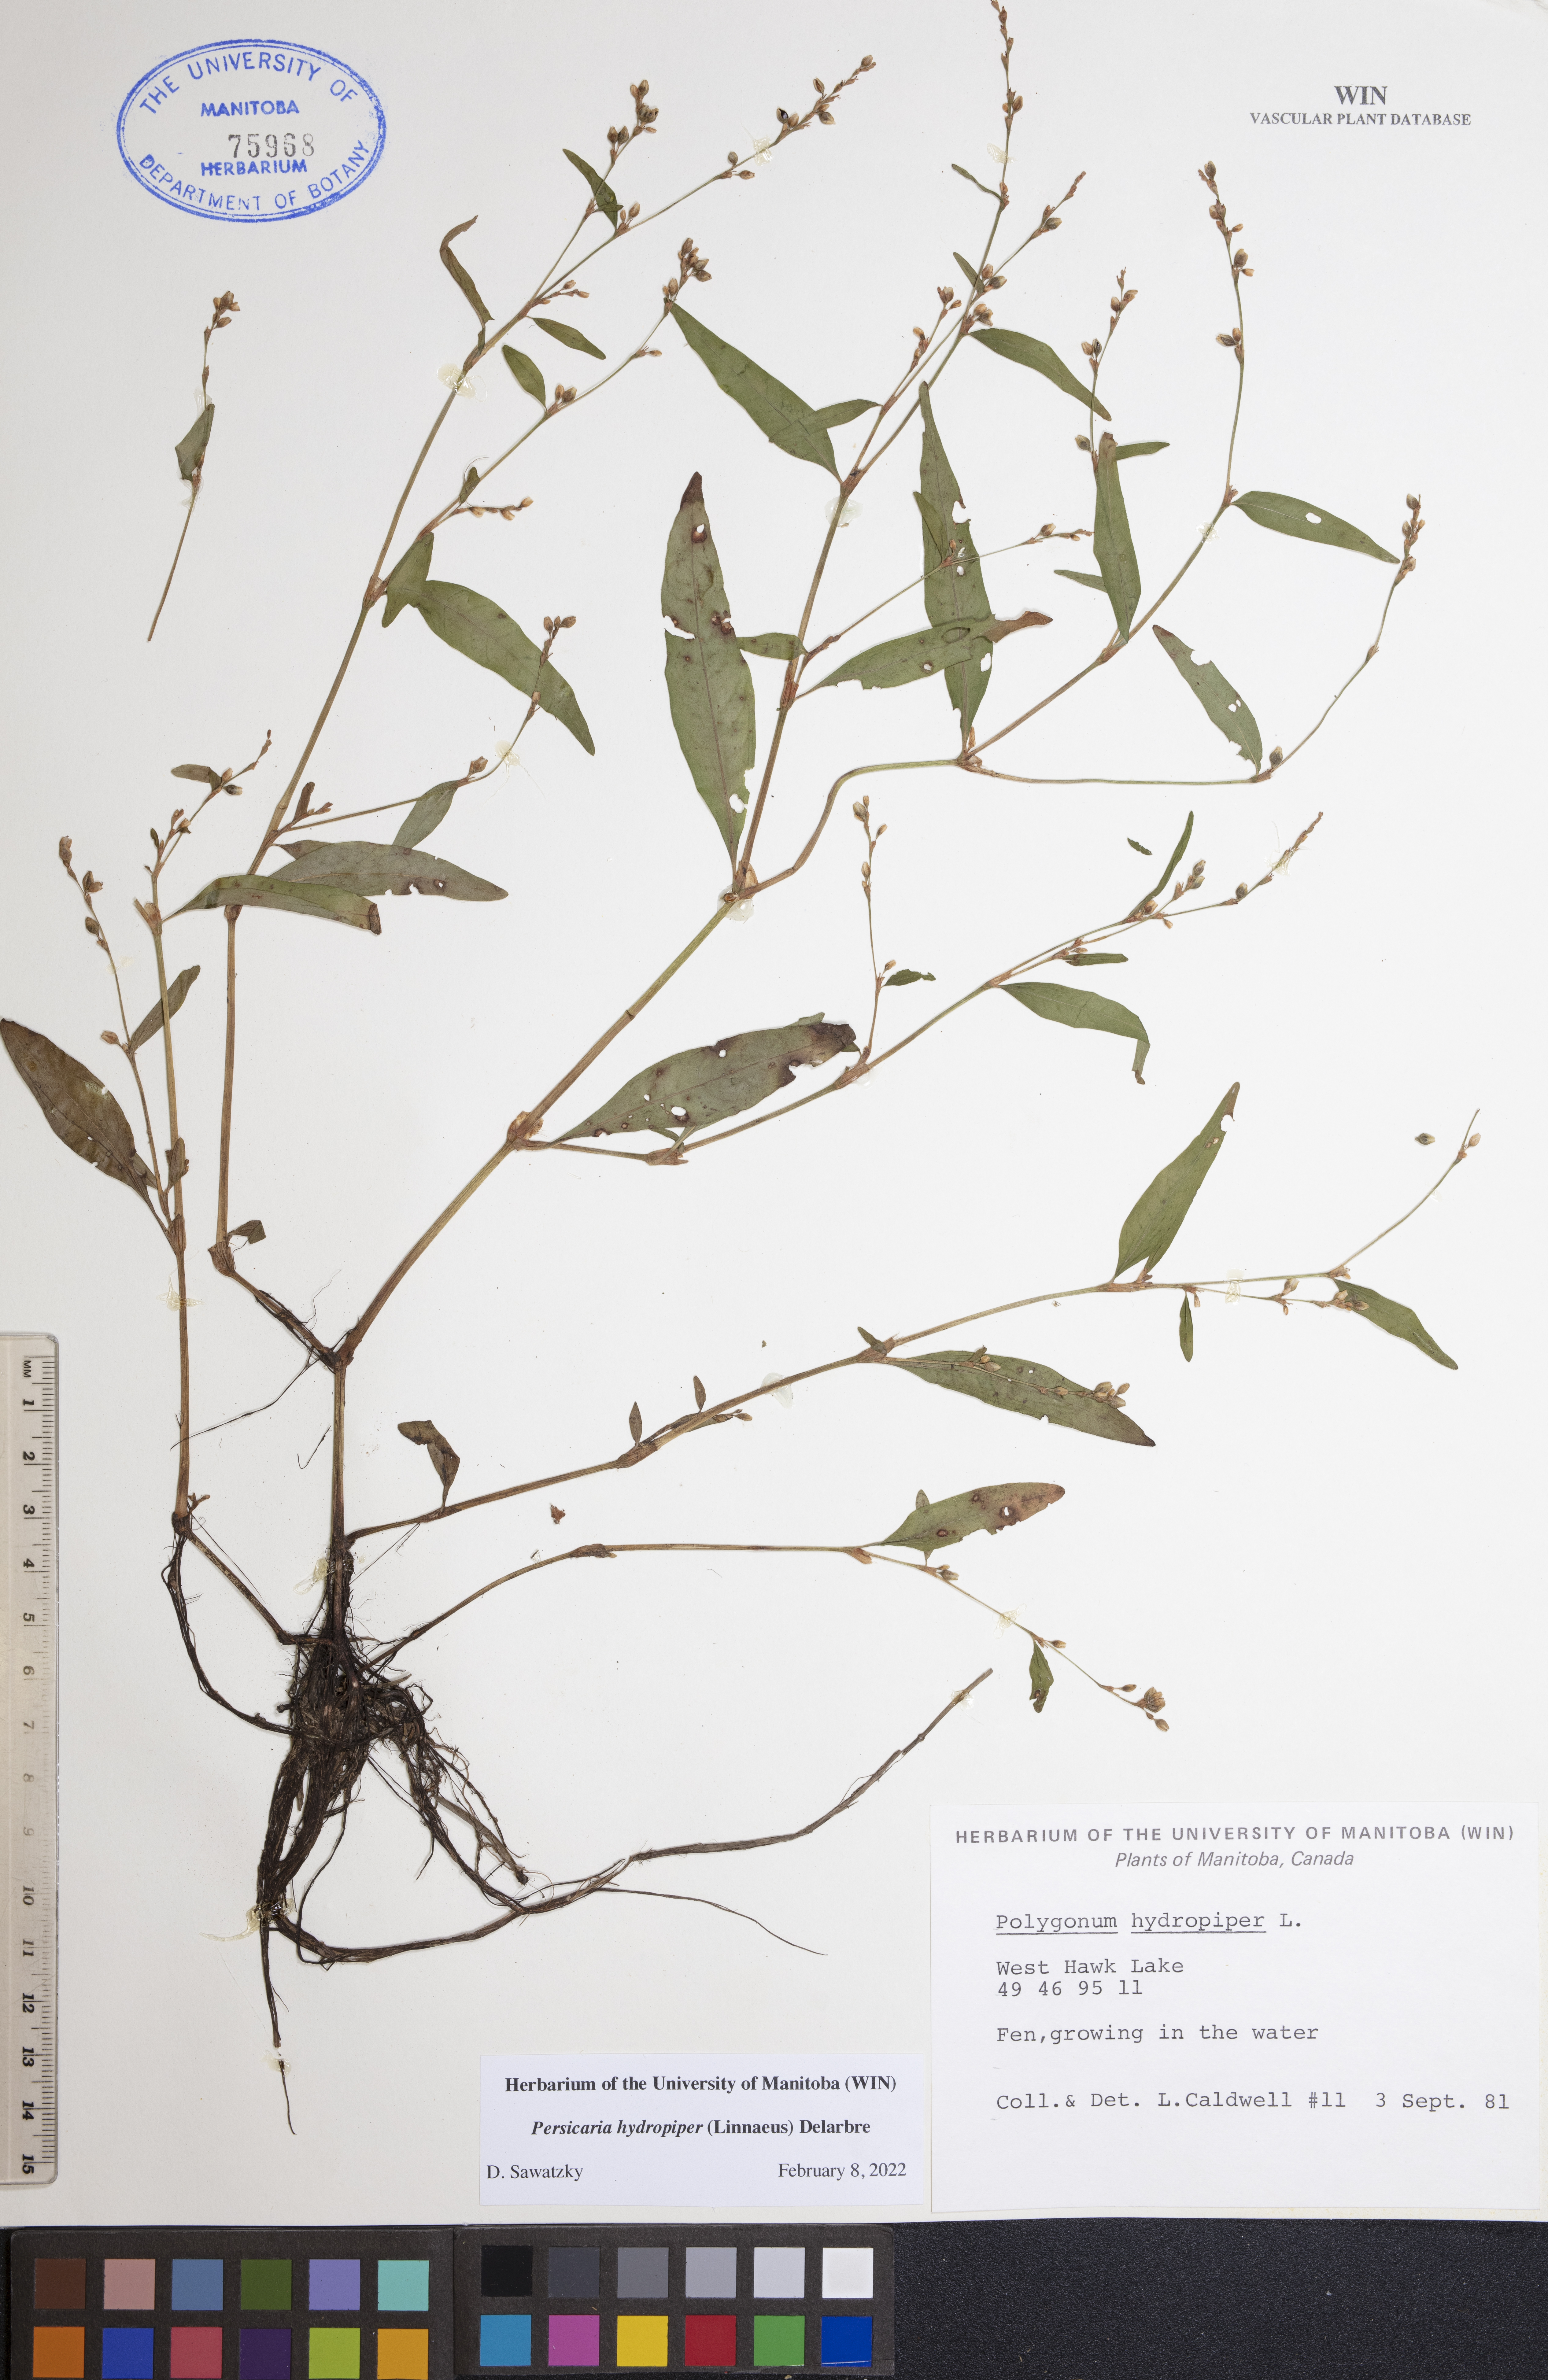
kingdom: Plantae
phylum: Tracheophyta
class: Magnoliopsida
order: Caryophyllales
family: Polygonaceae
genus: Persicaria
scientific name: Persicaria hydropiper
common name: Water-pepper
